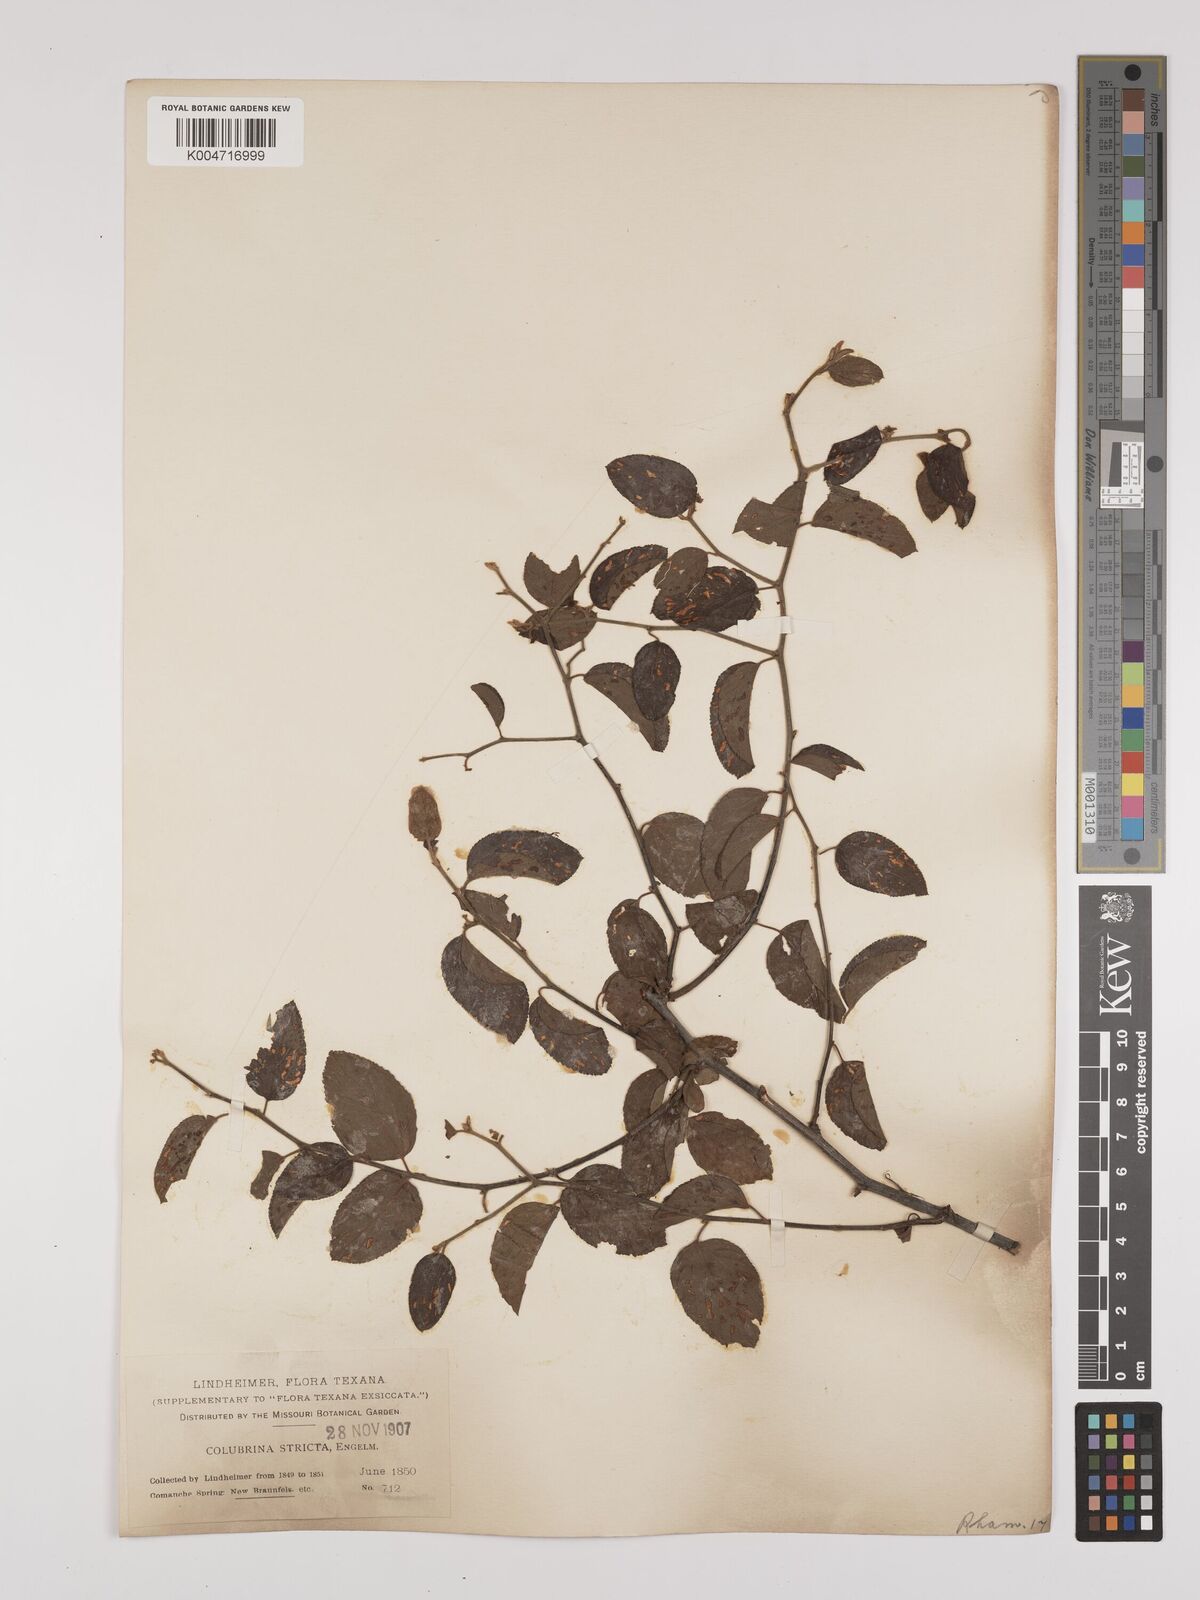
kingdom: Plantae
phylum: Tracheophyta
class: Magnoliopsida
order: Rosales
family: Rhamnaceae
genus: Colubrina
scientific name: Colubrina stricta
